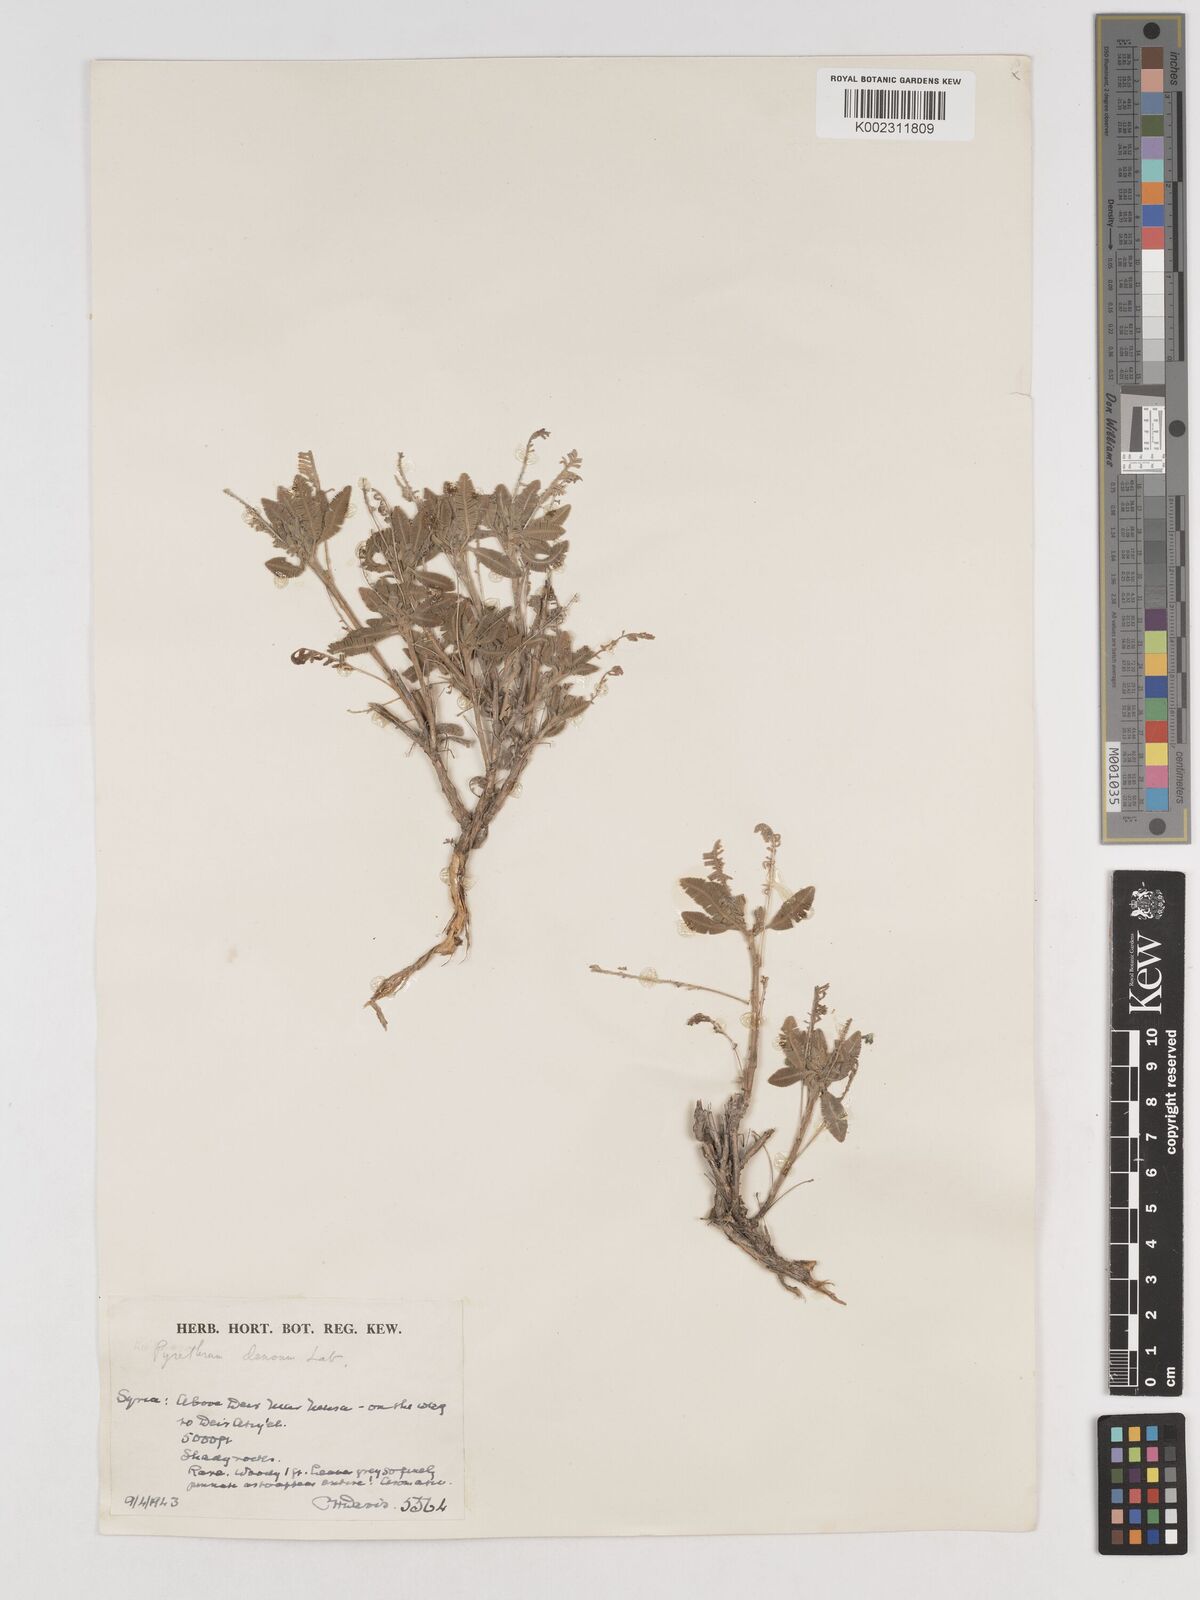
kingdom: Plantae
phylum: Tracheophyta
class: Magnoliopsida
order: Asterales
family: Asteraceae
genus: Tanacetum
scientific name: Tanacetum densum
